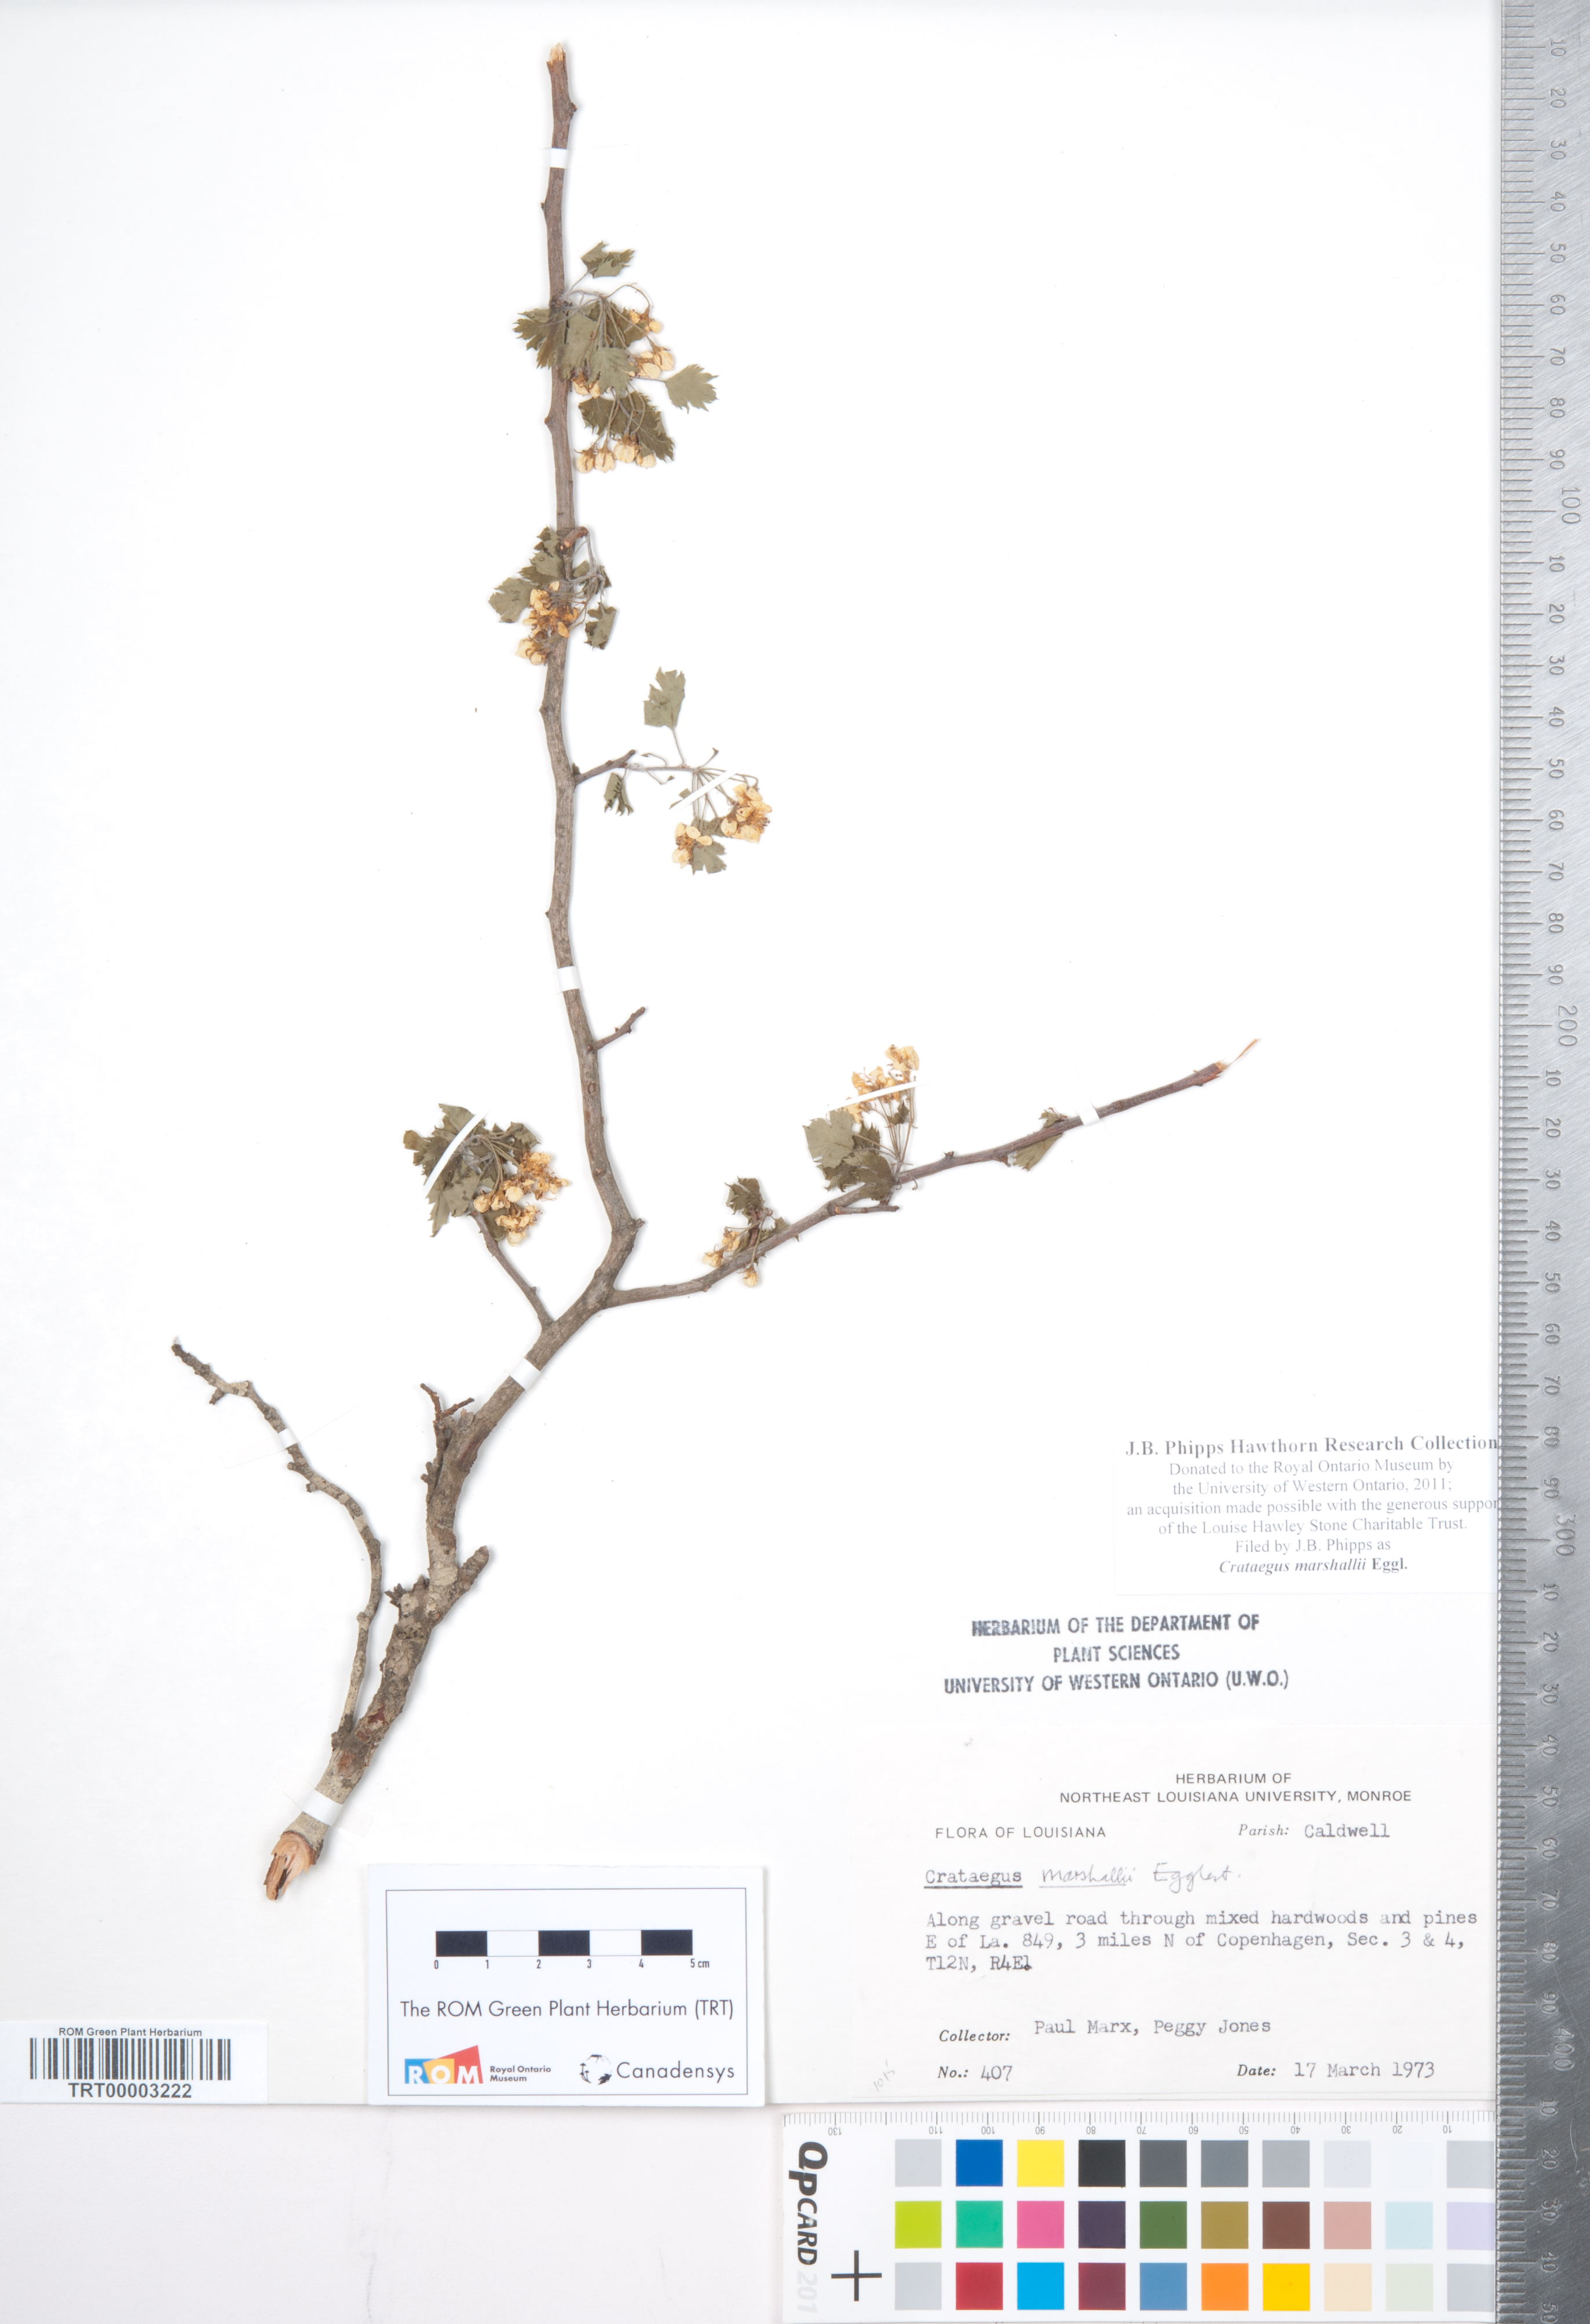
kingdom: Plantae
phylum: Tracheophyta
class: Magnoliopsida
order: Rosales
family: Rosaceae
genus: Crataegus
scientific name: Crataegus marshallii
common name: Parsley-hawthorn
